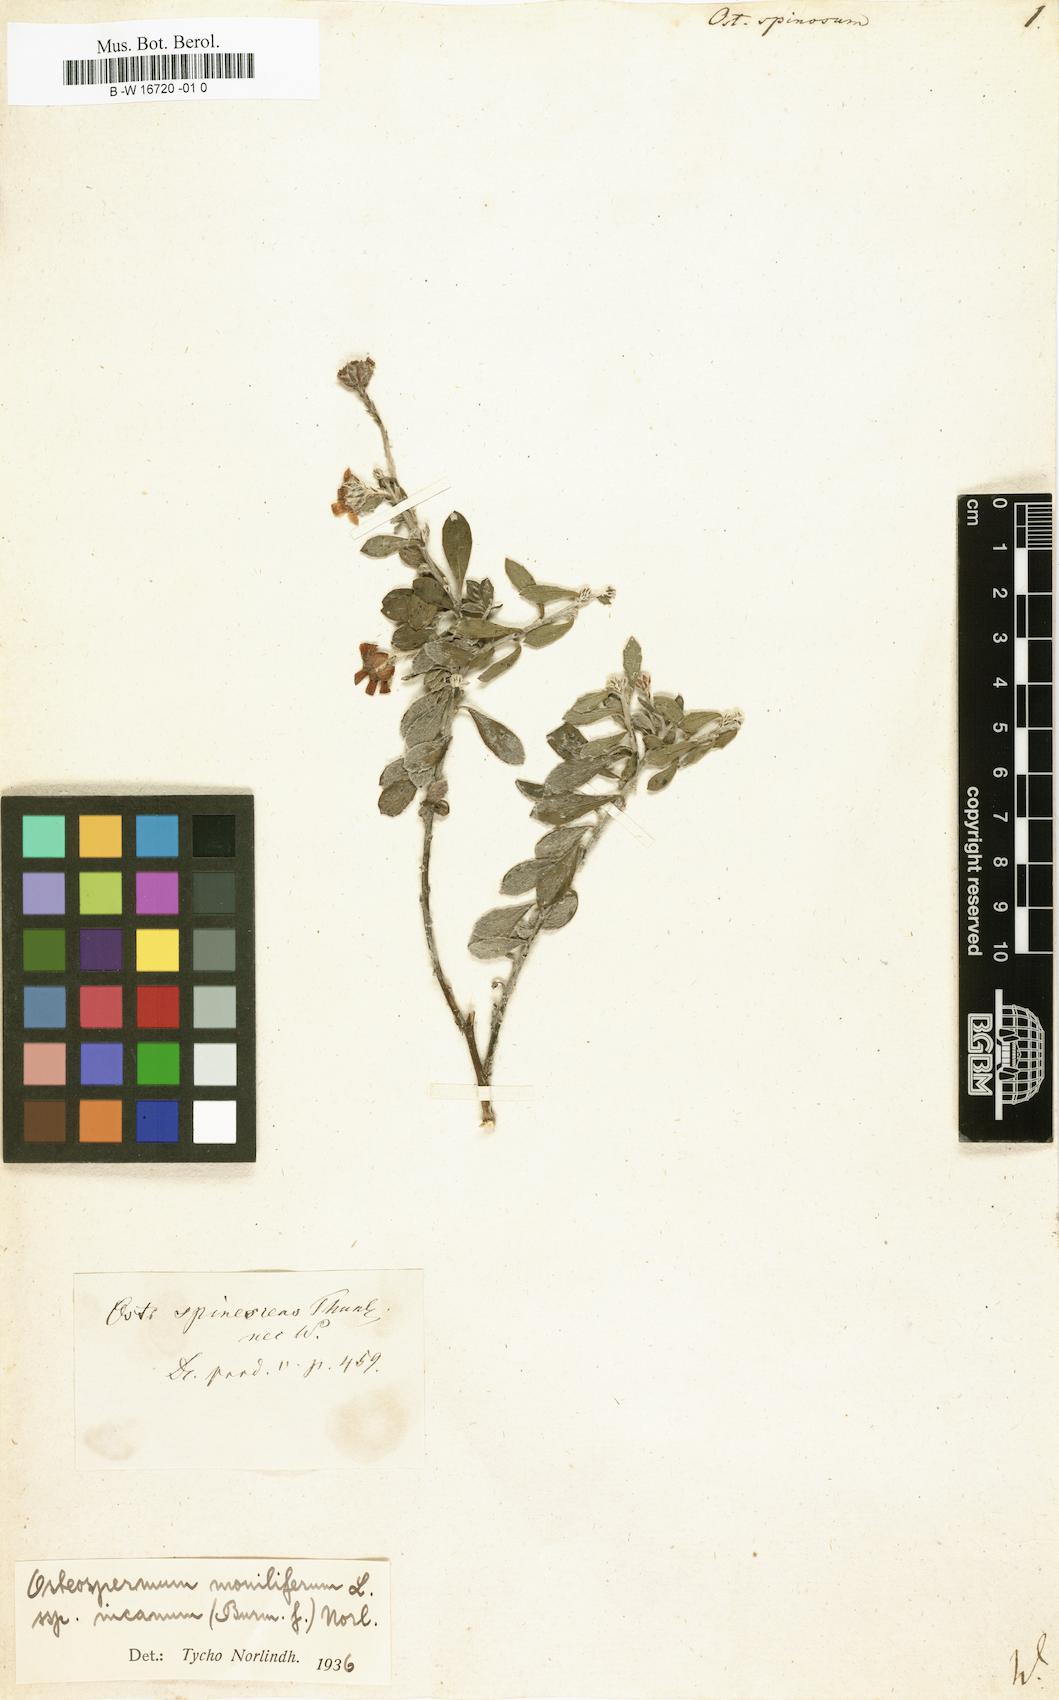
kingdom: Plantae
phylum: Tracheophyta
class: Magnoliopsida
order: Asterales
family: Asteraceae
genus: Osteospermum
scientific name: Osteospermum spinosum
